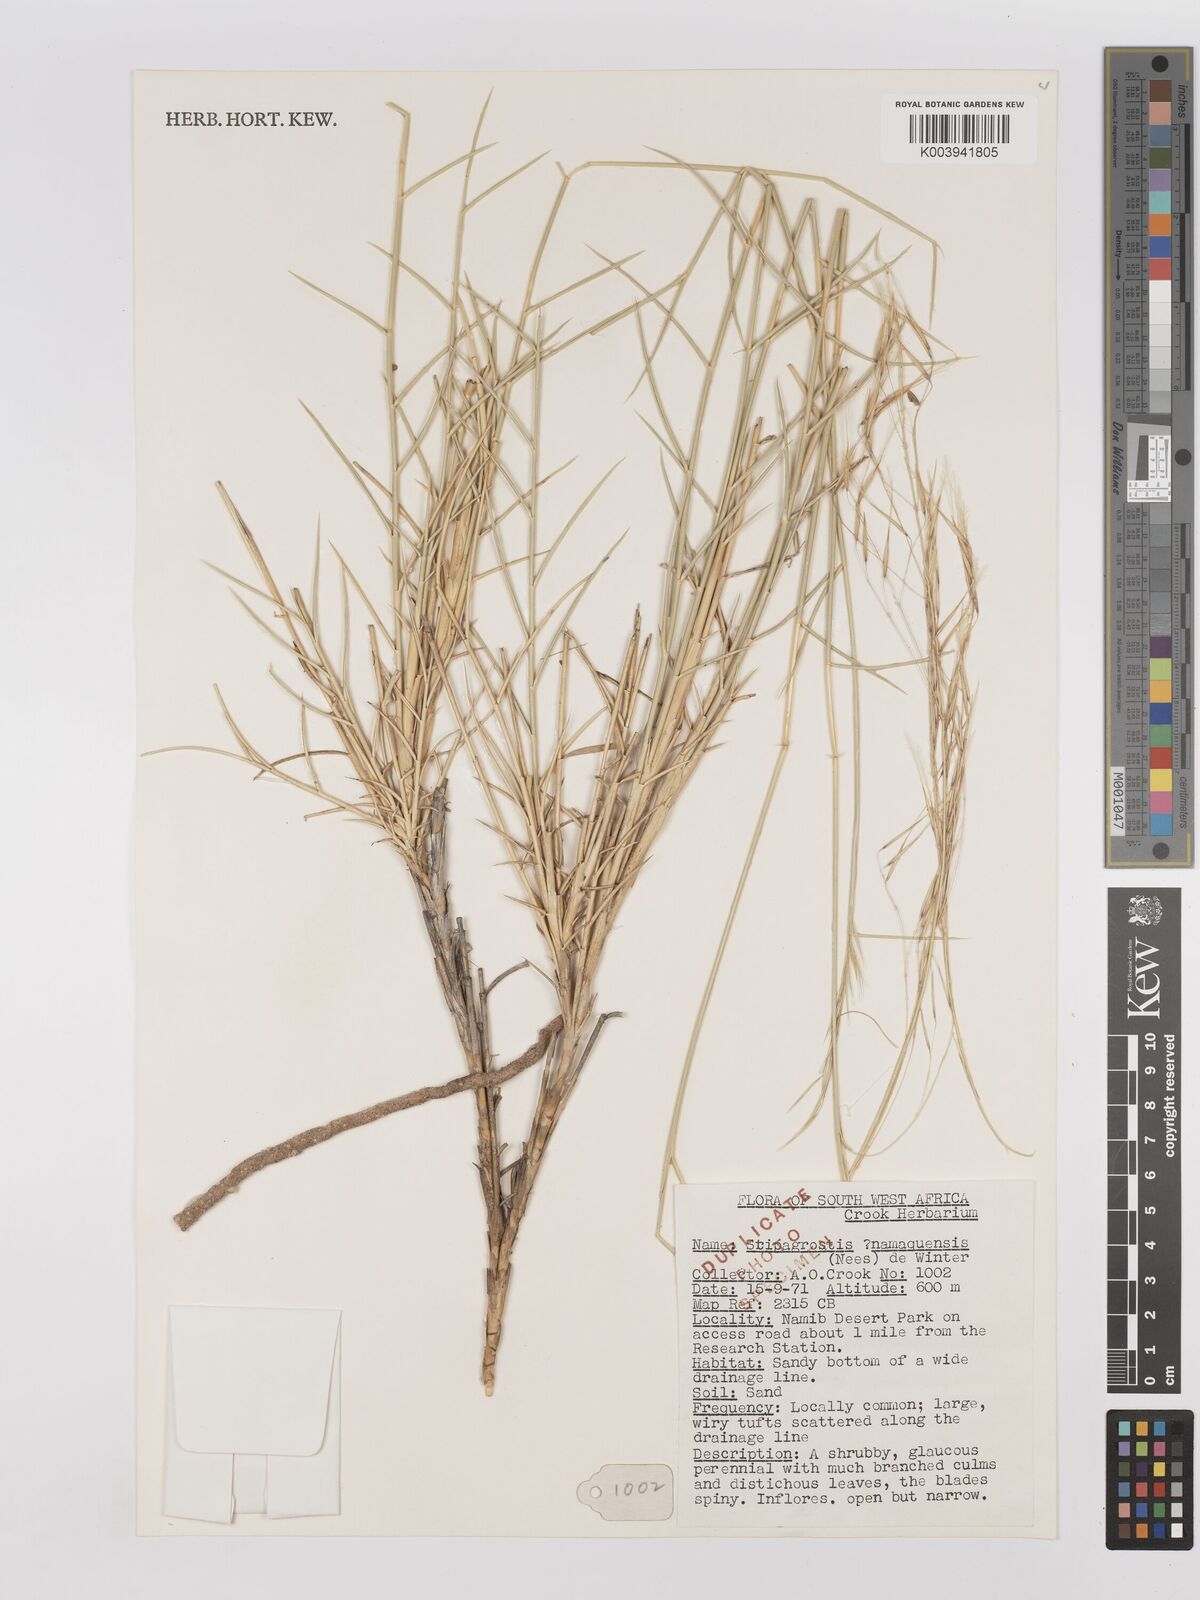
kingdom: Plantae
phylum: Tracheophyta
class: Liliopsida
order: Poales
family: Poaceae
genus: Stipagrostis
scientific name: Stipagrostis namaquensis
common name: River bushman grass
